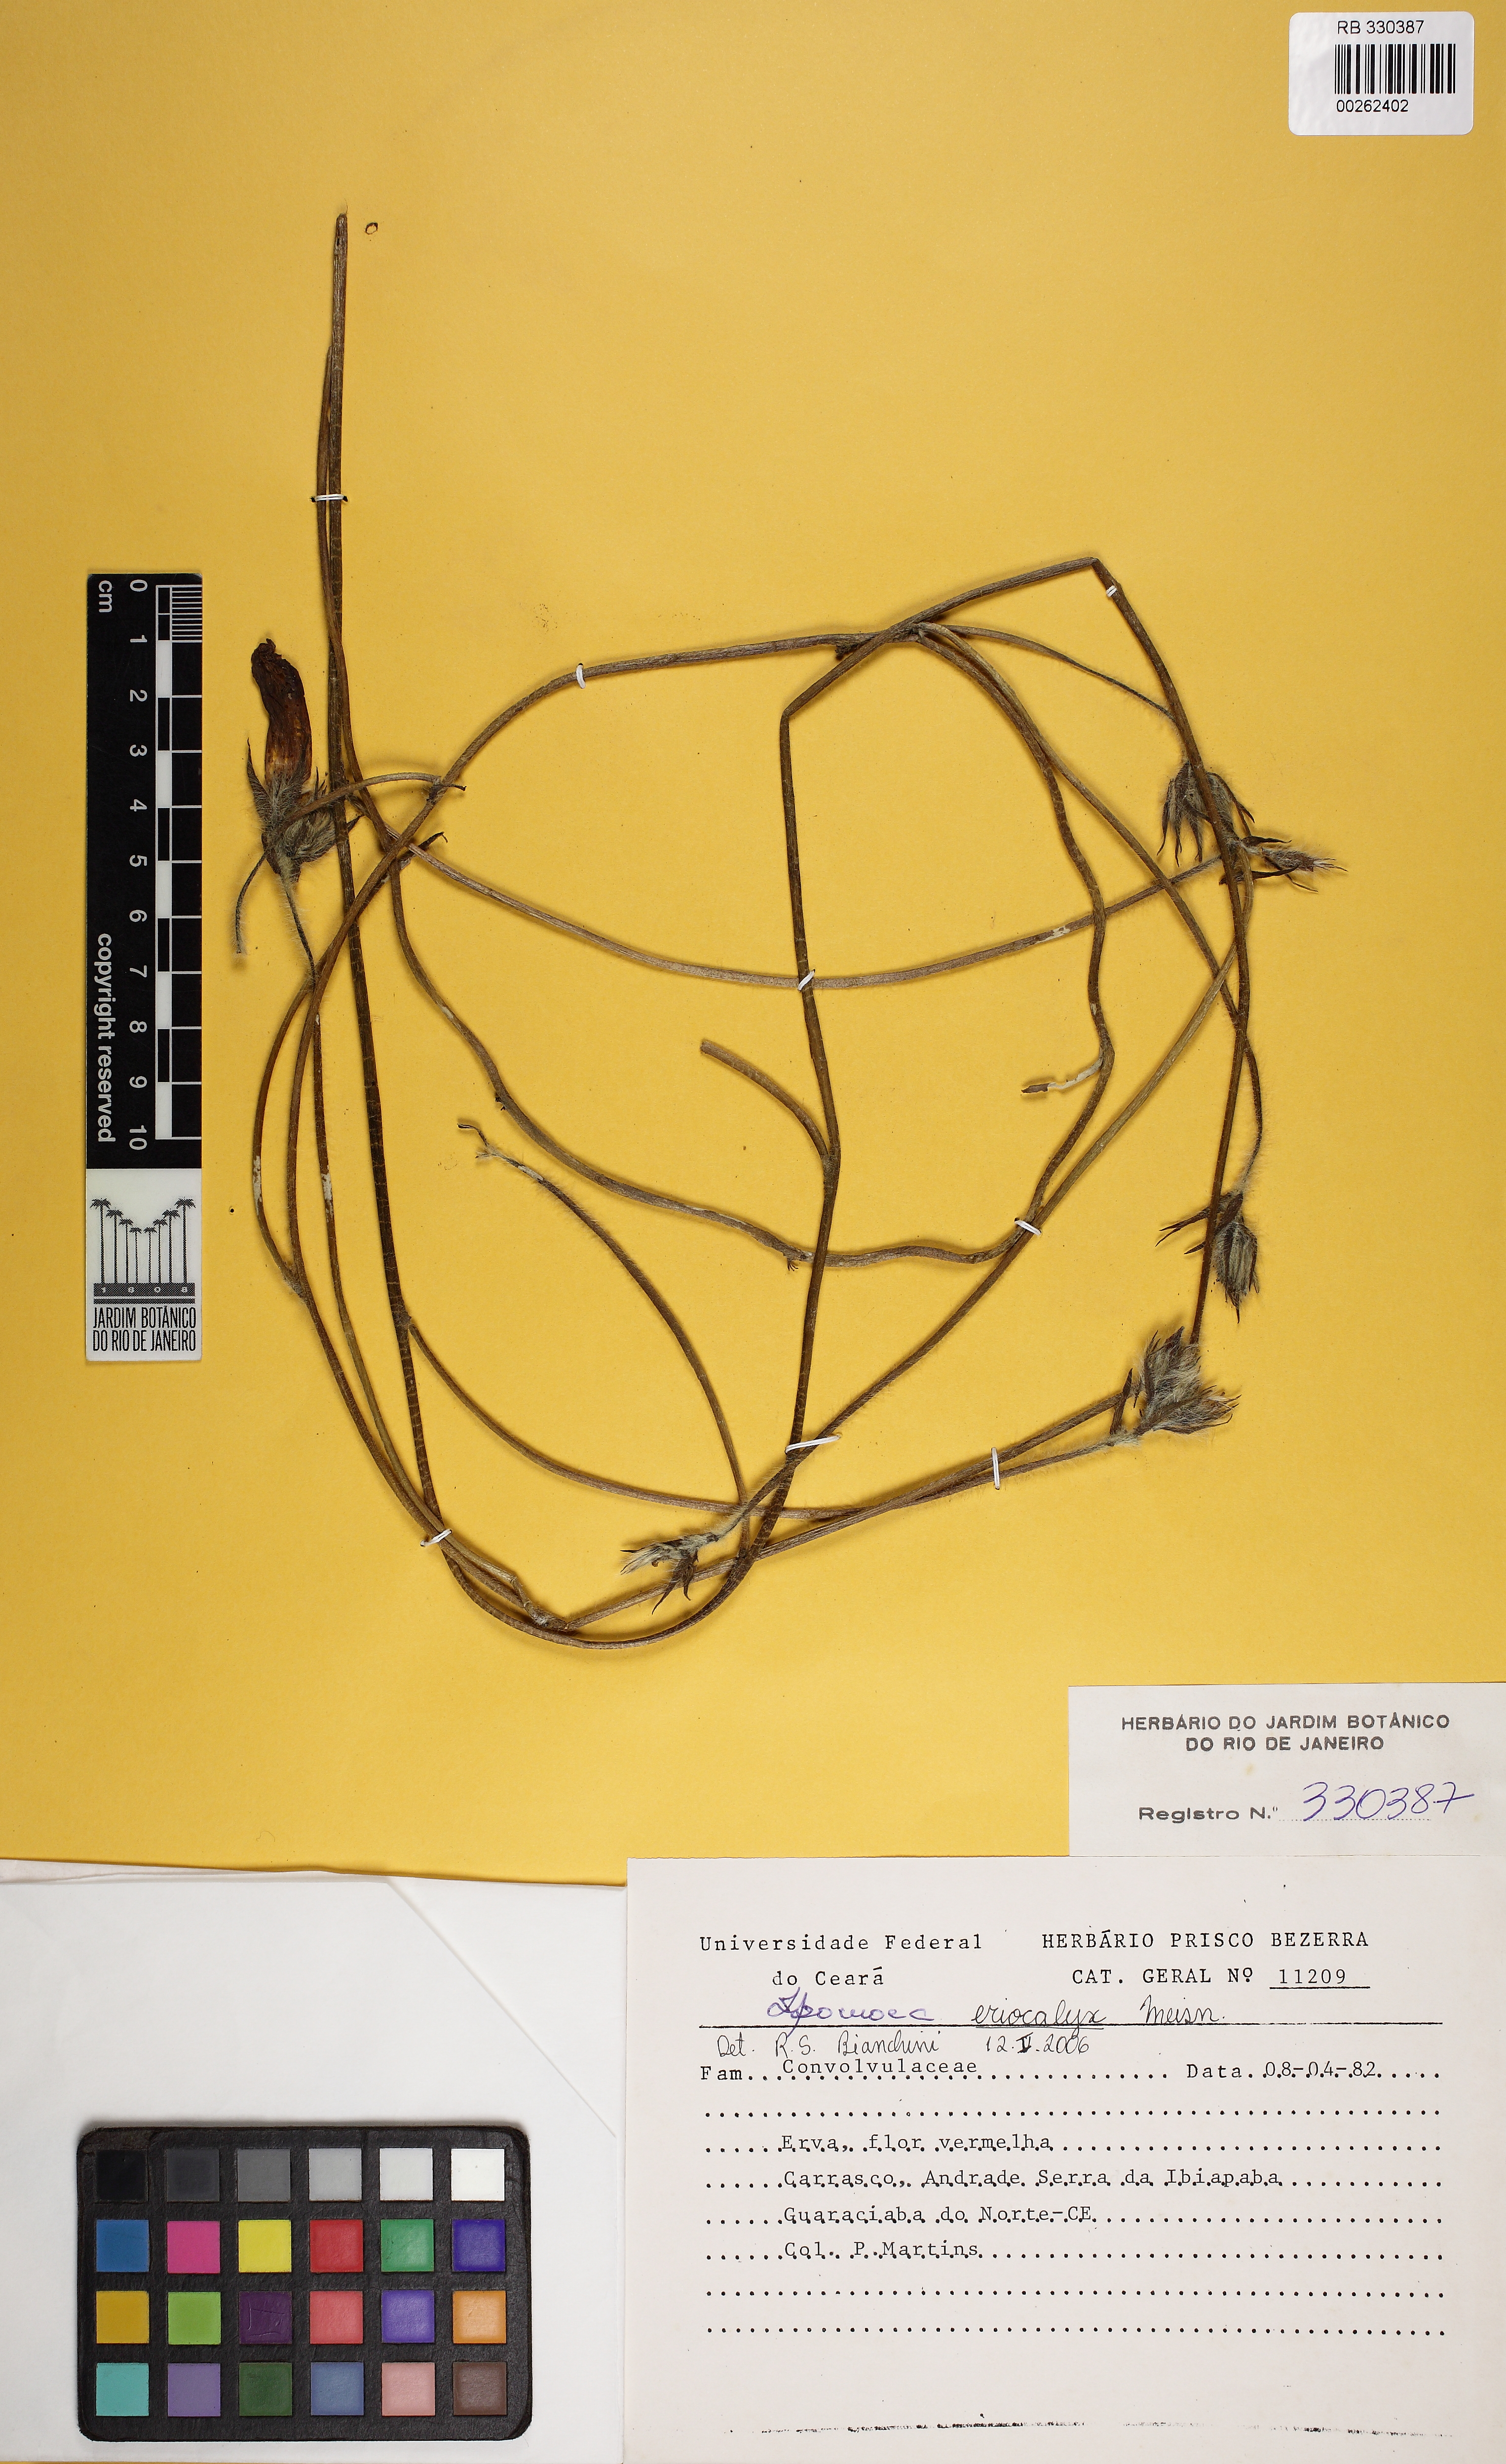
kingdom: Plantae
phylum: Tracheophyta
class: Magnoliopsida
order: Solanales
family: Convolvulaceae
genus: Ipomoea
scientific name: Ipomoea eriocalyx
